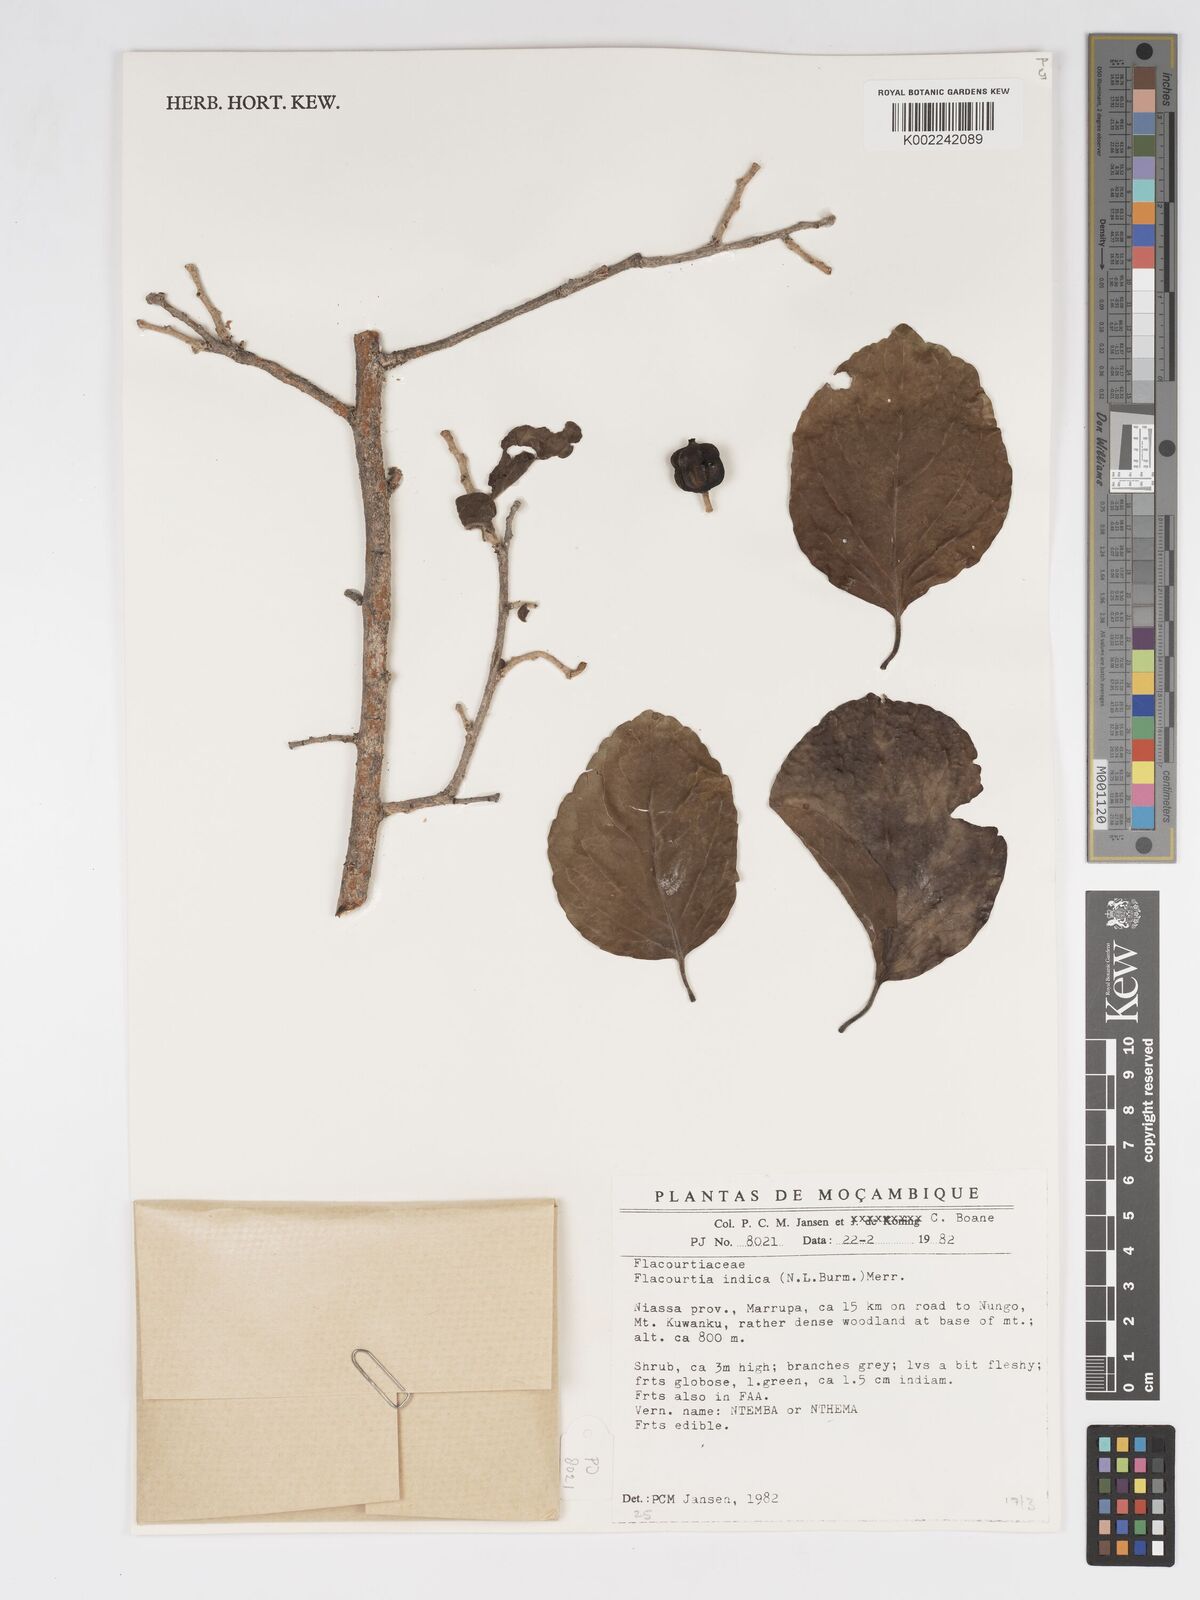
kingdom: Plantae
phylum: Tracheophyta
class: Magnoliopsida
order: Malpighiales
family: Salicaceae
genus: Flacourtia
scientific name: Flacourtia indica
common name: Governor's plum
